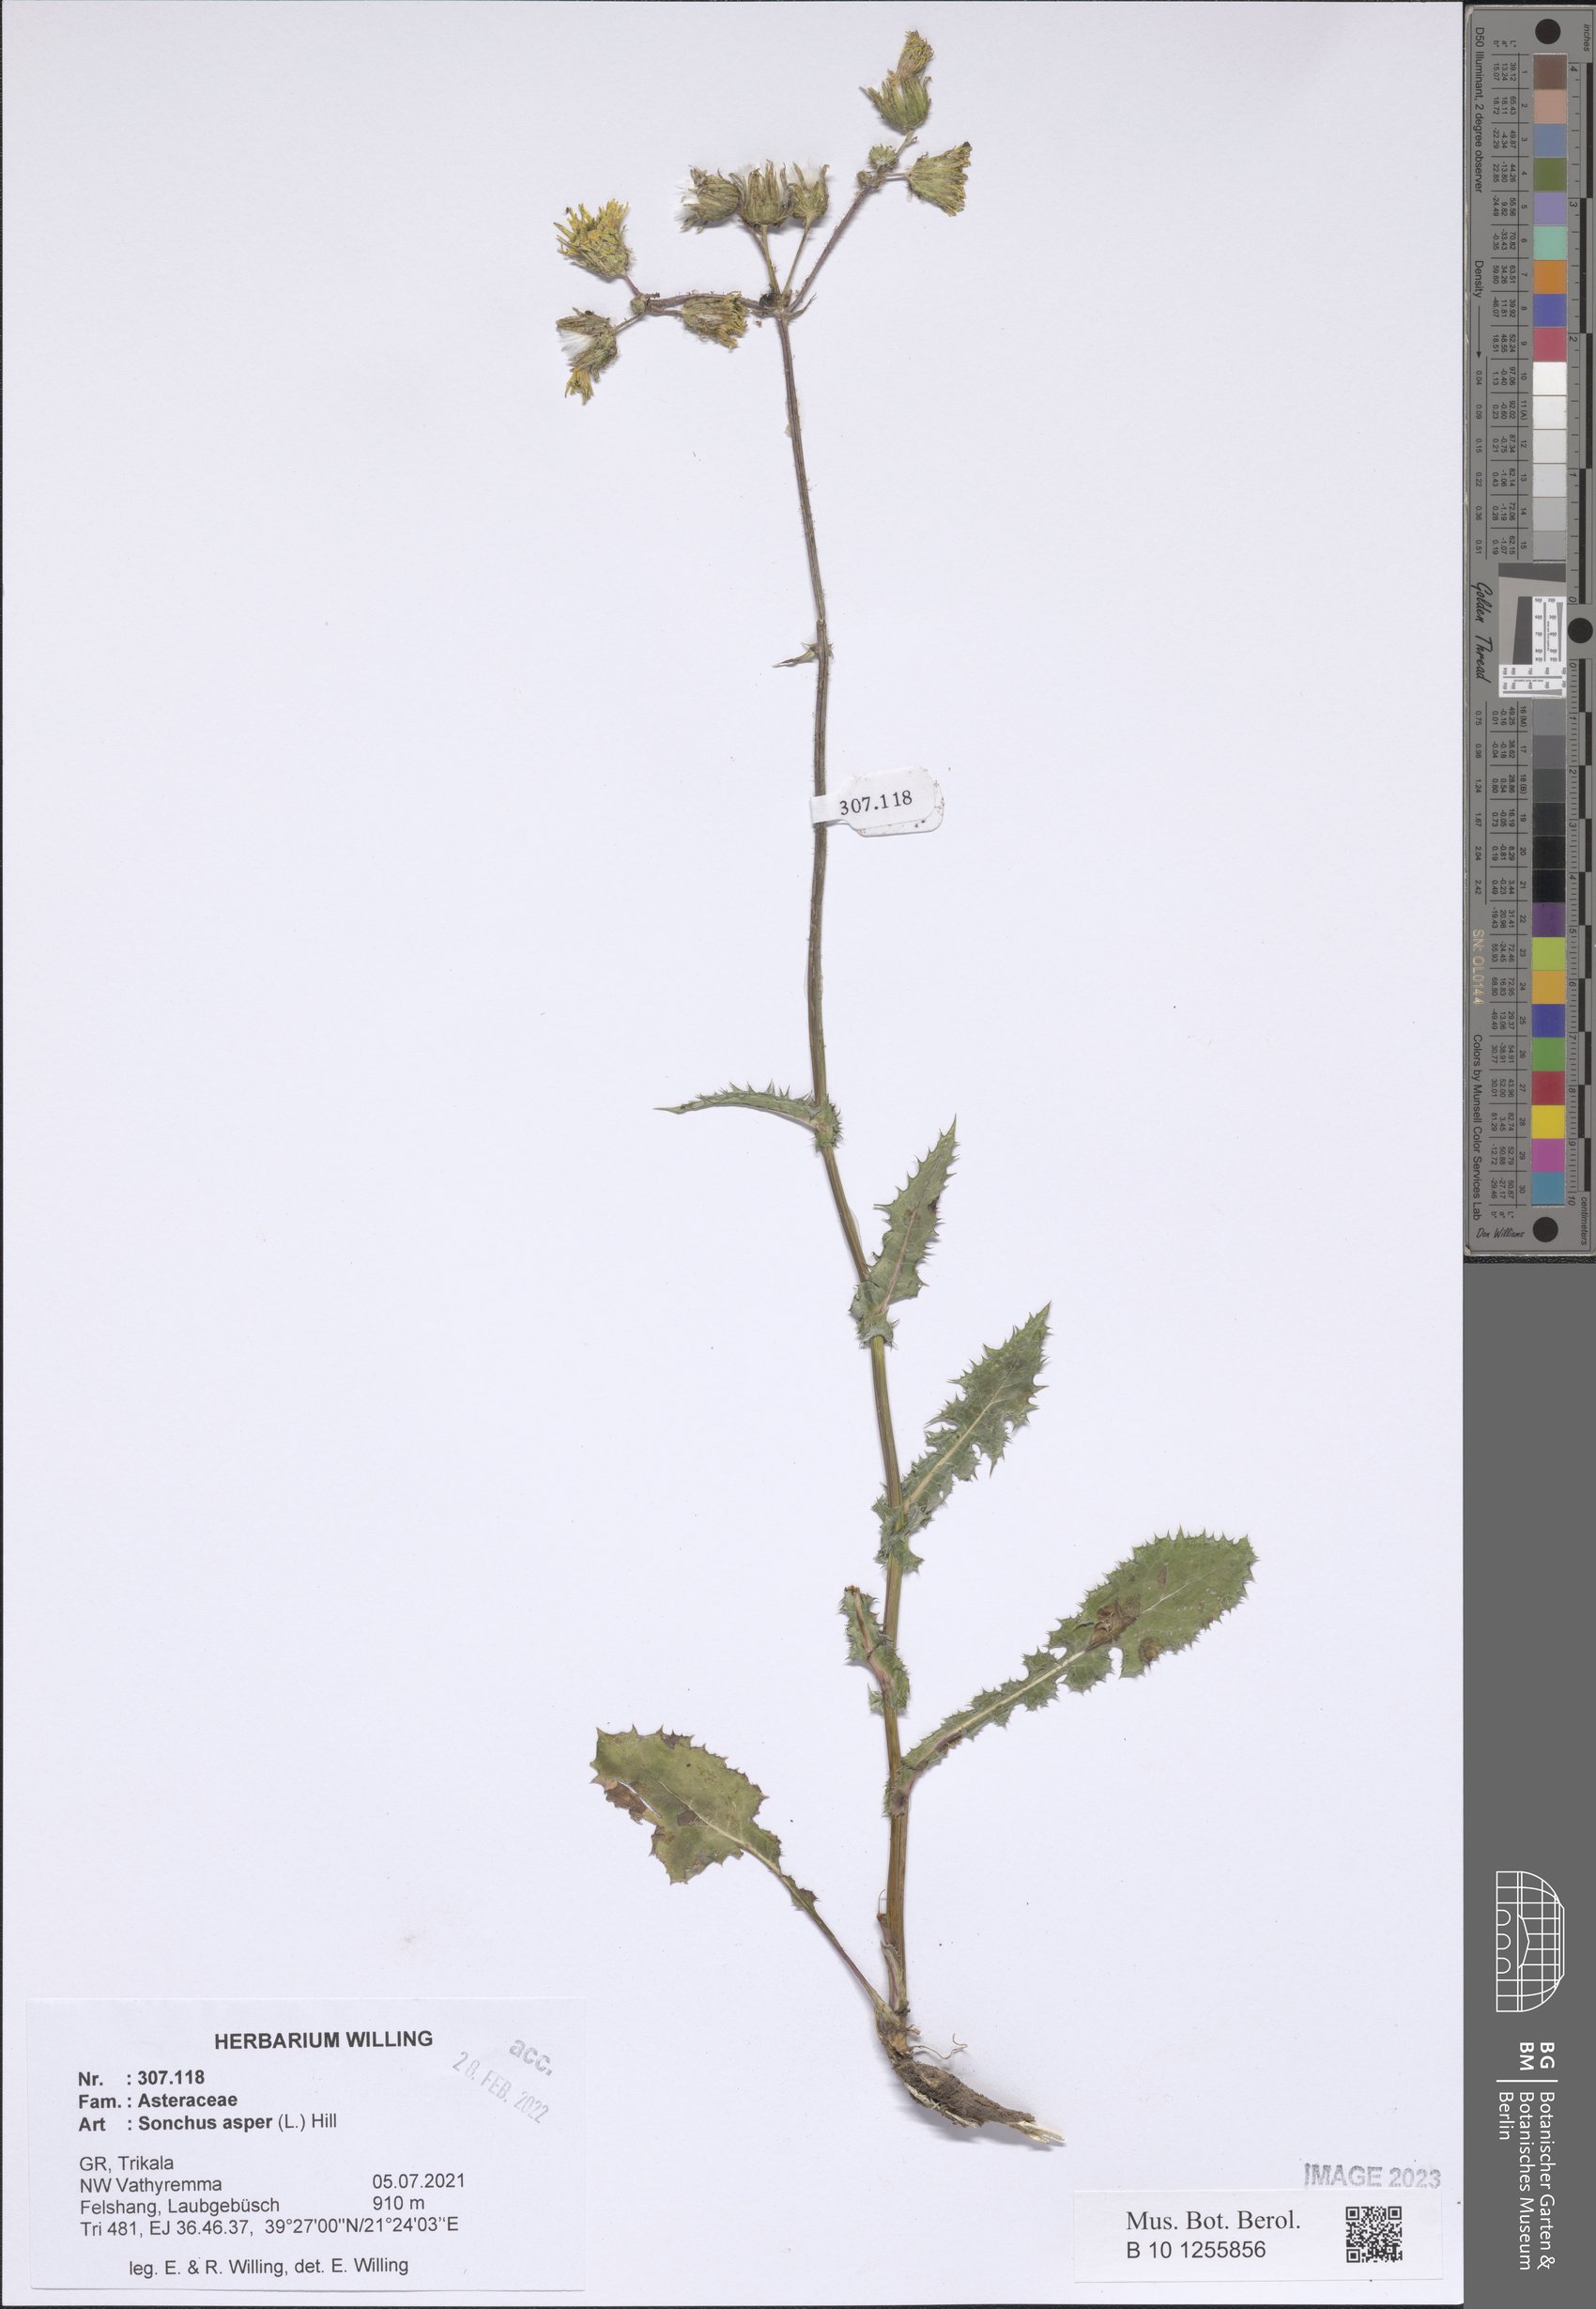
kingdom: Plantae
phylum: Tracheophyta
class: Magnoliopsida
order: Asterales
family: Asteraceae
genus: Sonchus
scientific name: Sonchus asper
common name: Prickly sow-thistle
